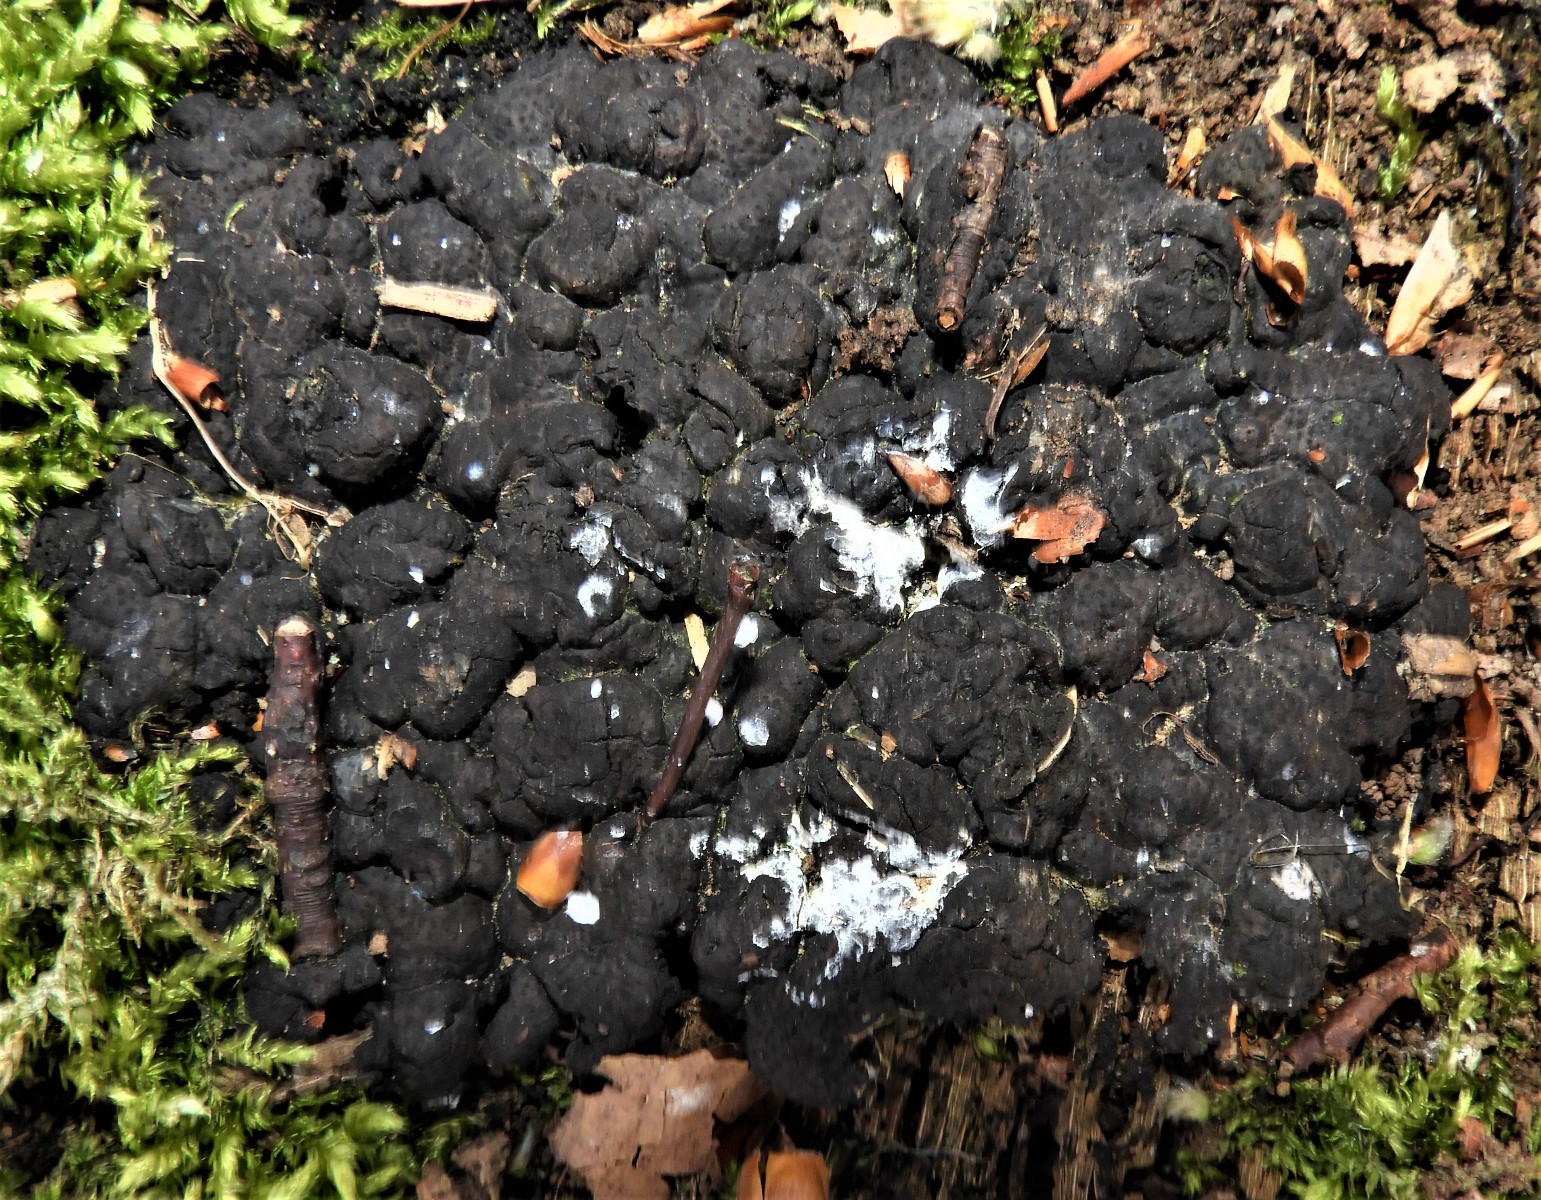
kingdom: Fungi
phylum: Ascomycota
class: Sordariomycetes
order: Xylariales
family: Xylariaceae
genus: Kretzschmaria
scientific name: Kretzschmaria deusta
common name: stor kulsvamp
